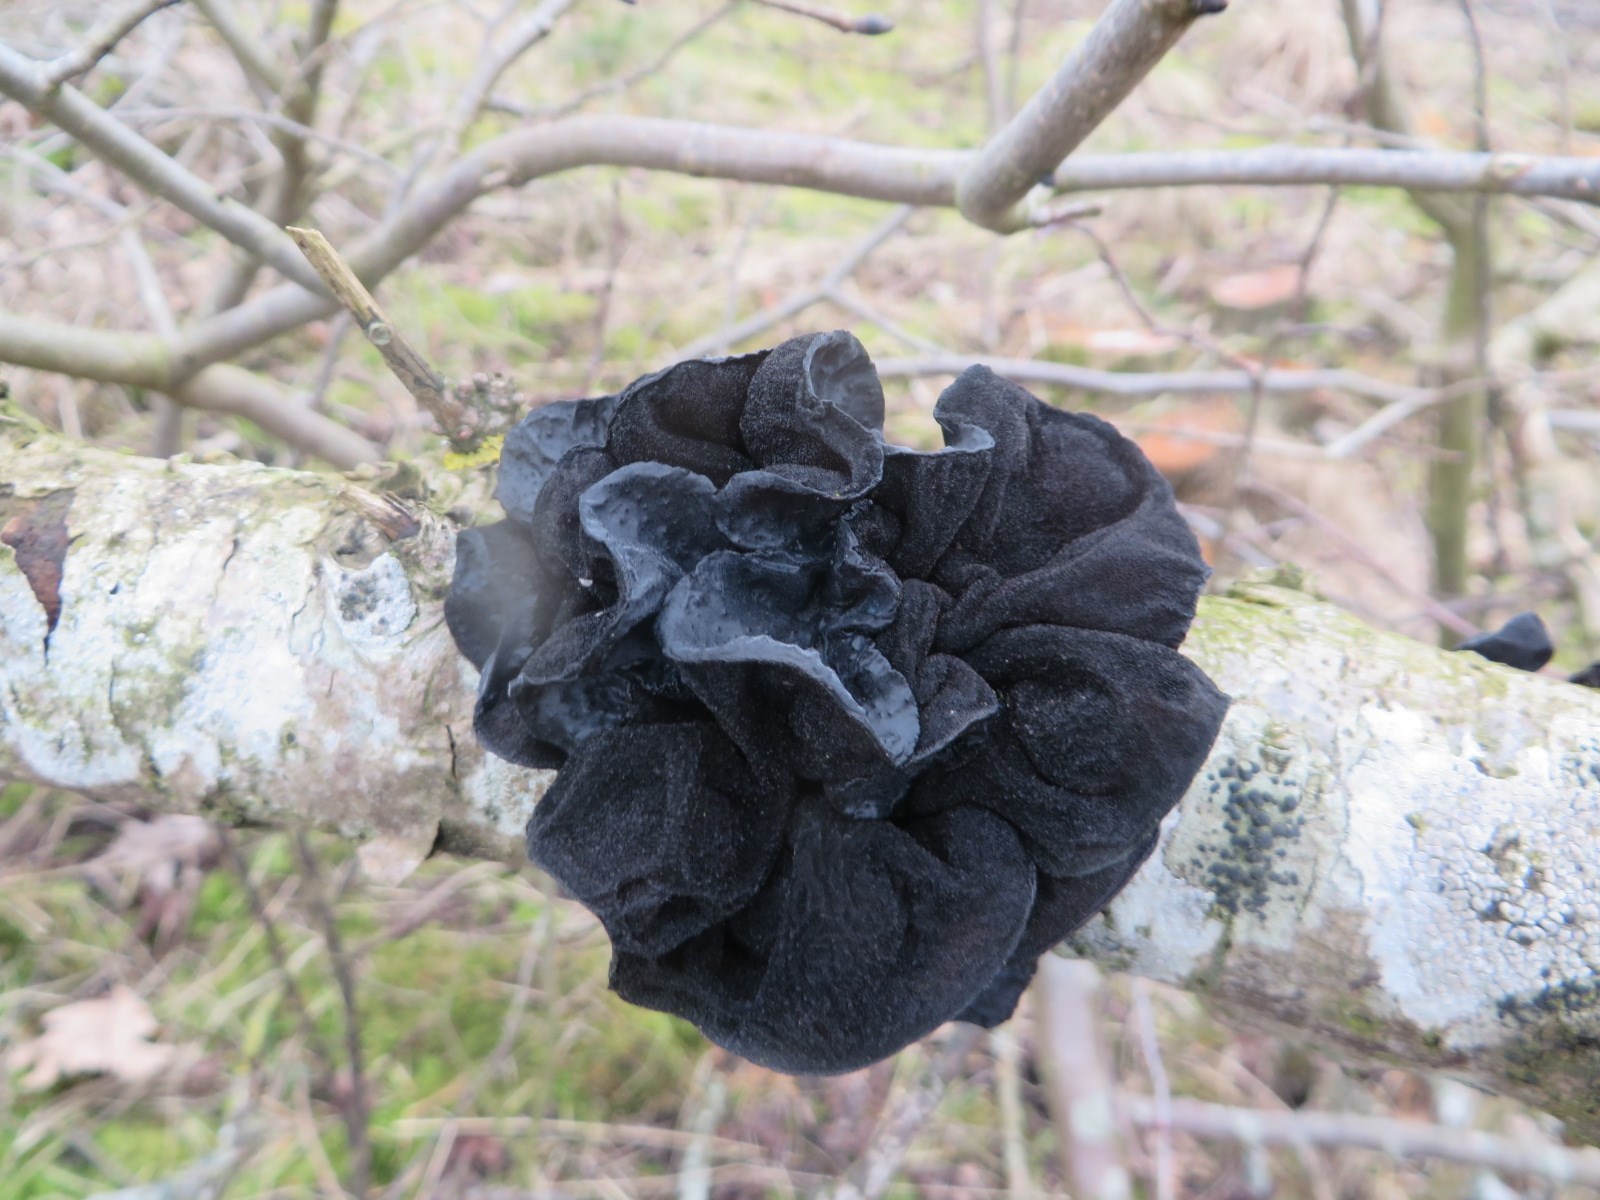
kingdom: Fungi
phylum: Basidiomycota
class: Agaricomycetes
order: Auriculariales
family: Auriculariaceae
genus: Exidia
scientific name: Exidia glandulosa
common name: ege-bævretop
